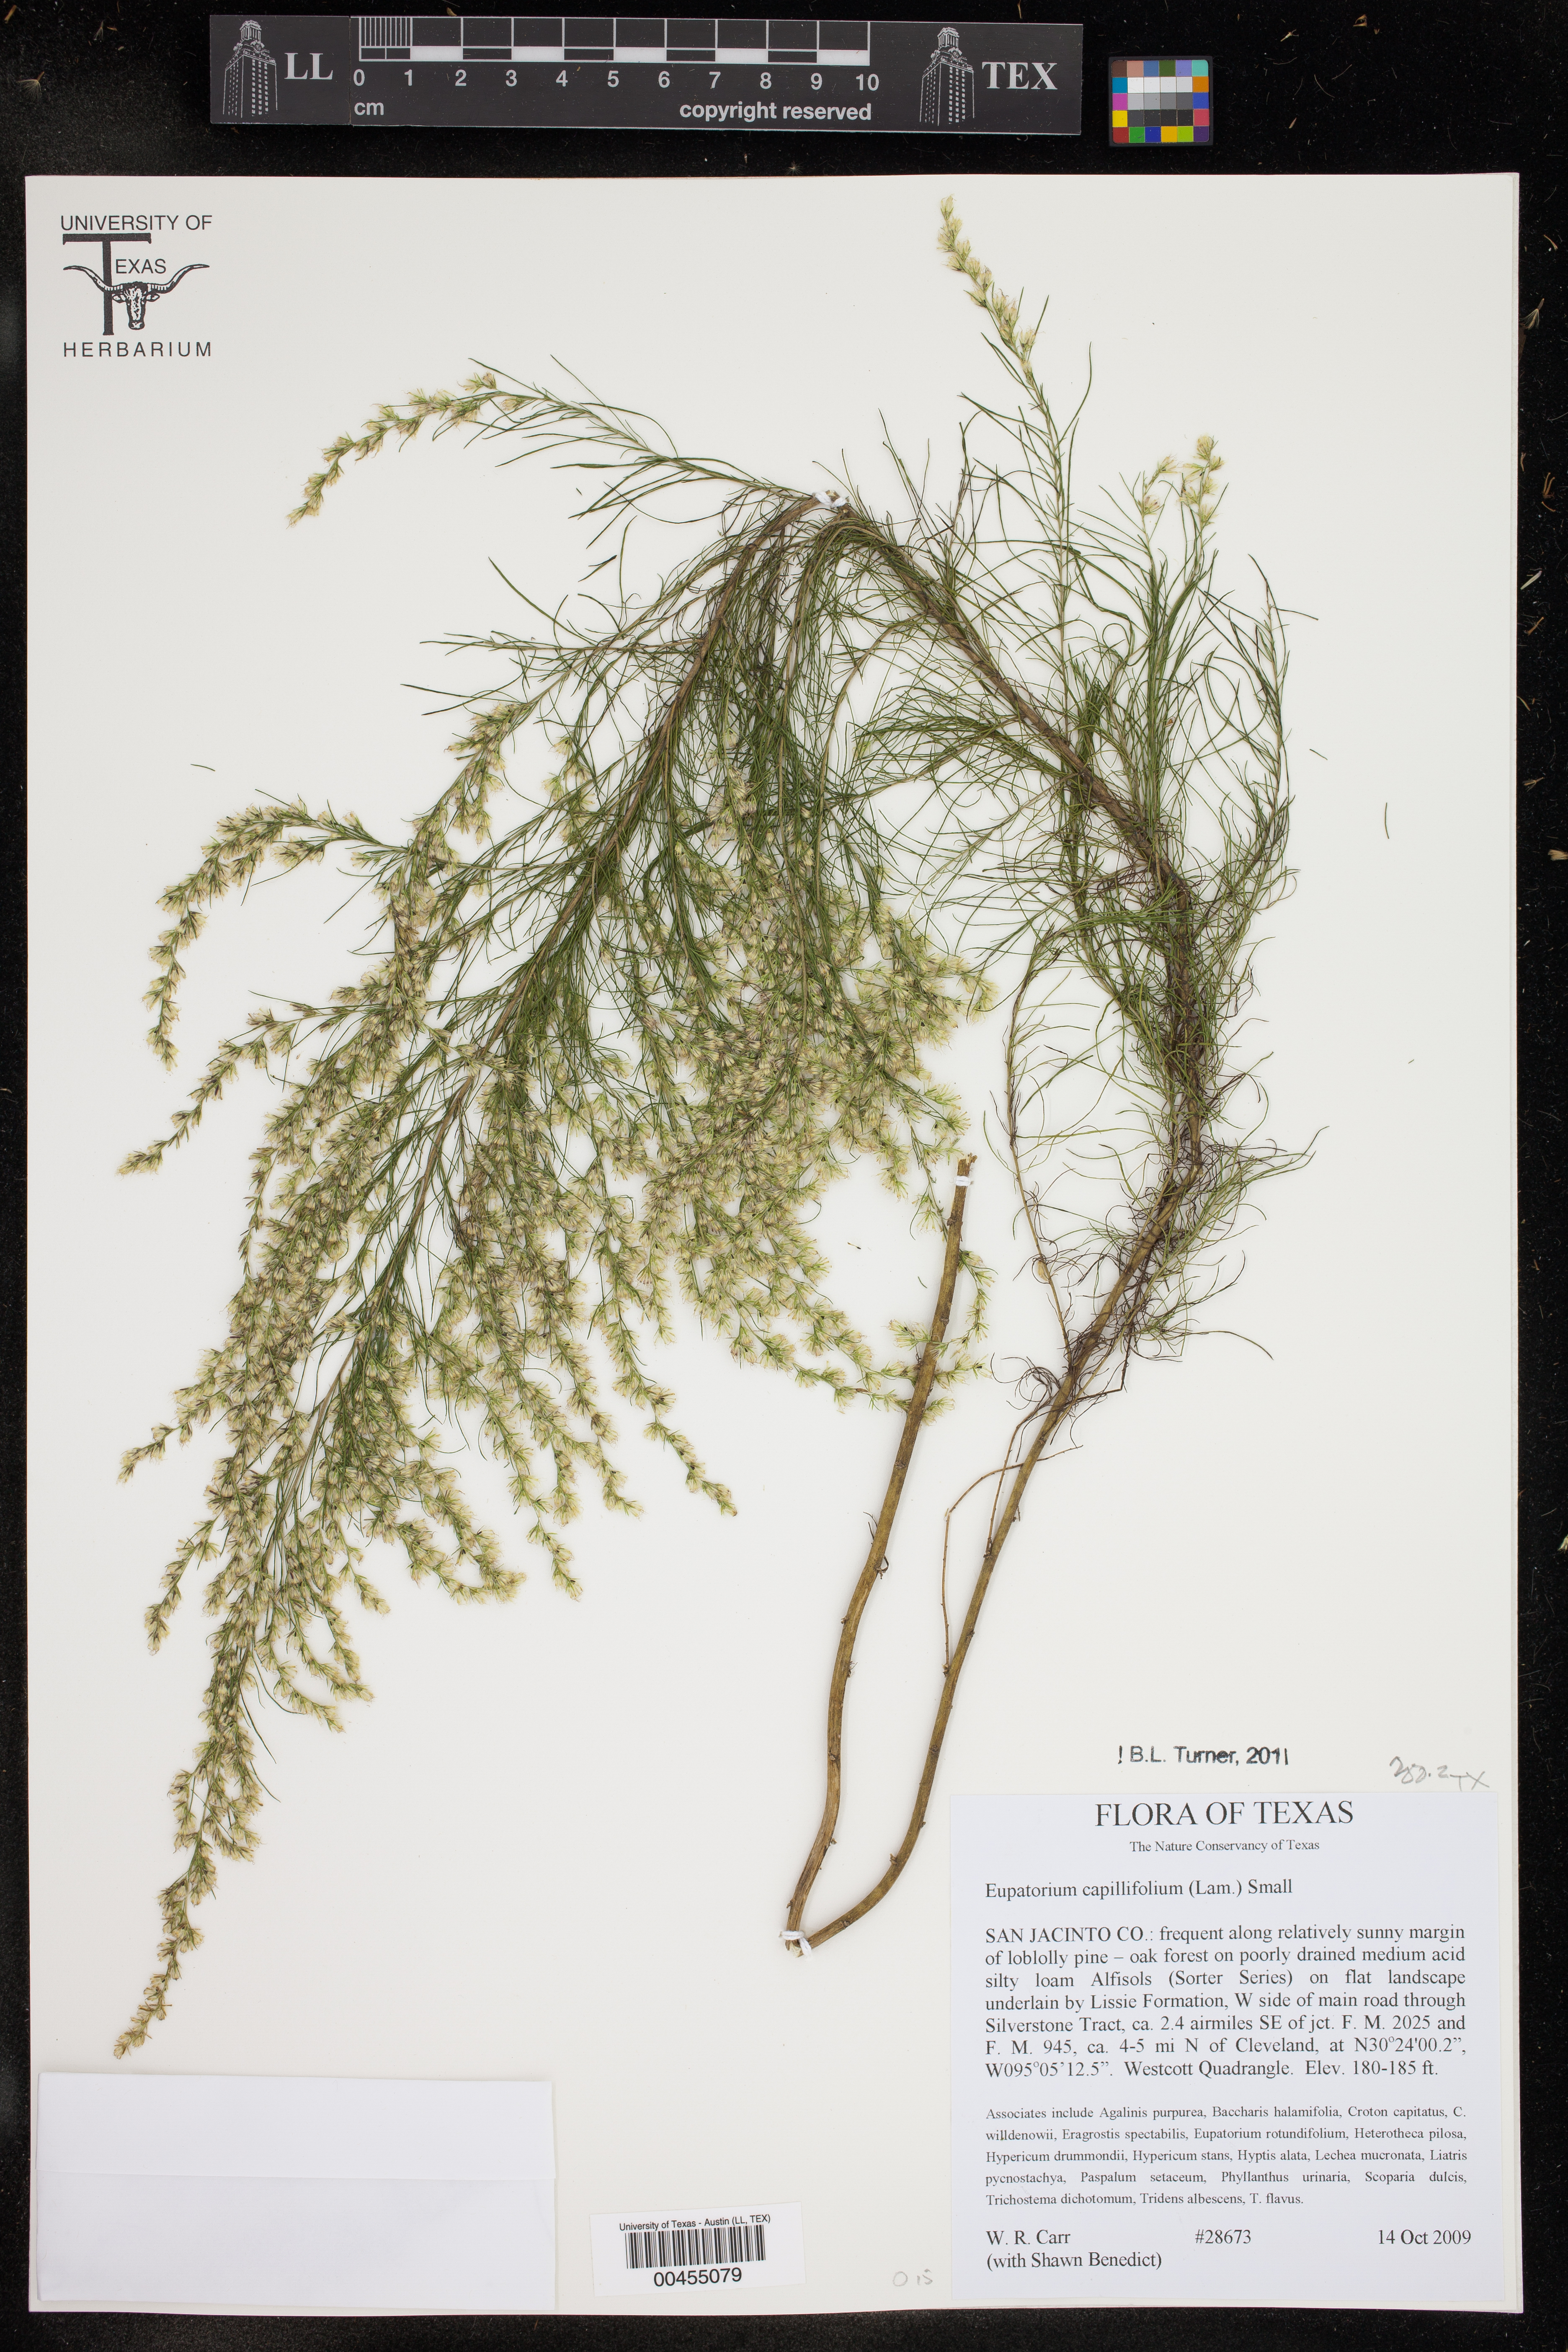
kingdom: Plantae
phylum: Tracheophyta
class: Magnoliopsida
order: Asterales
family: Asteraceae
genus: Eupatorium
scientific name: Eupatorium capillifolium
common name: Dog-fennel
